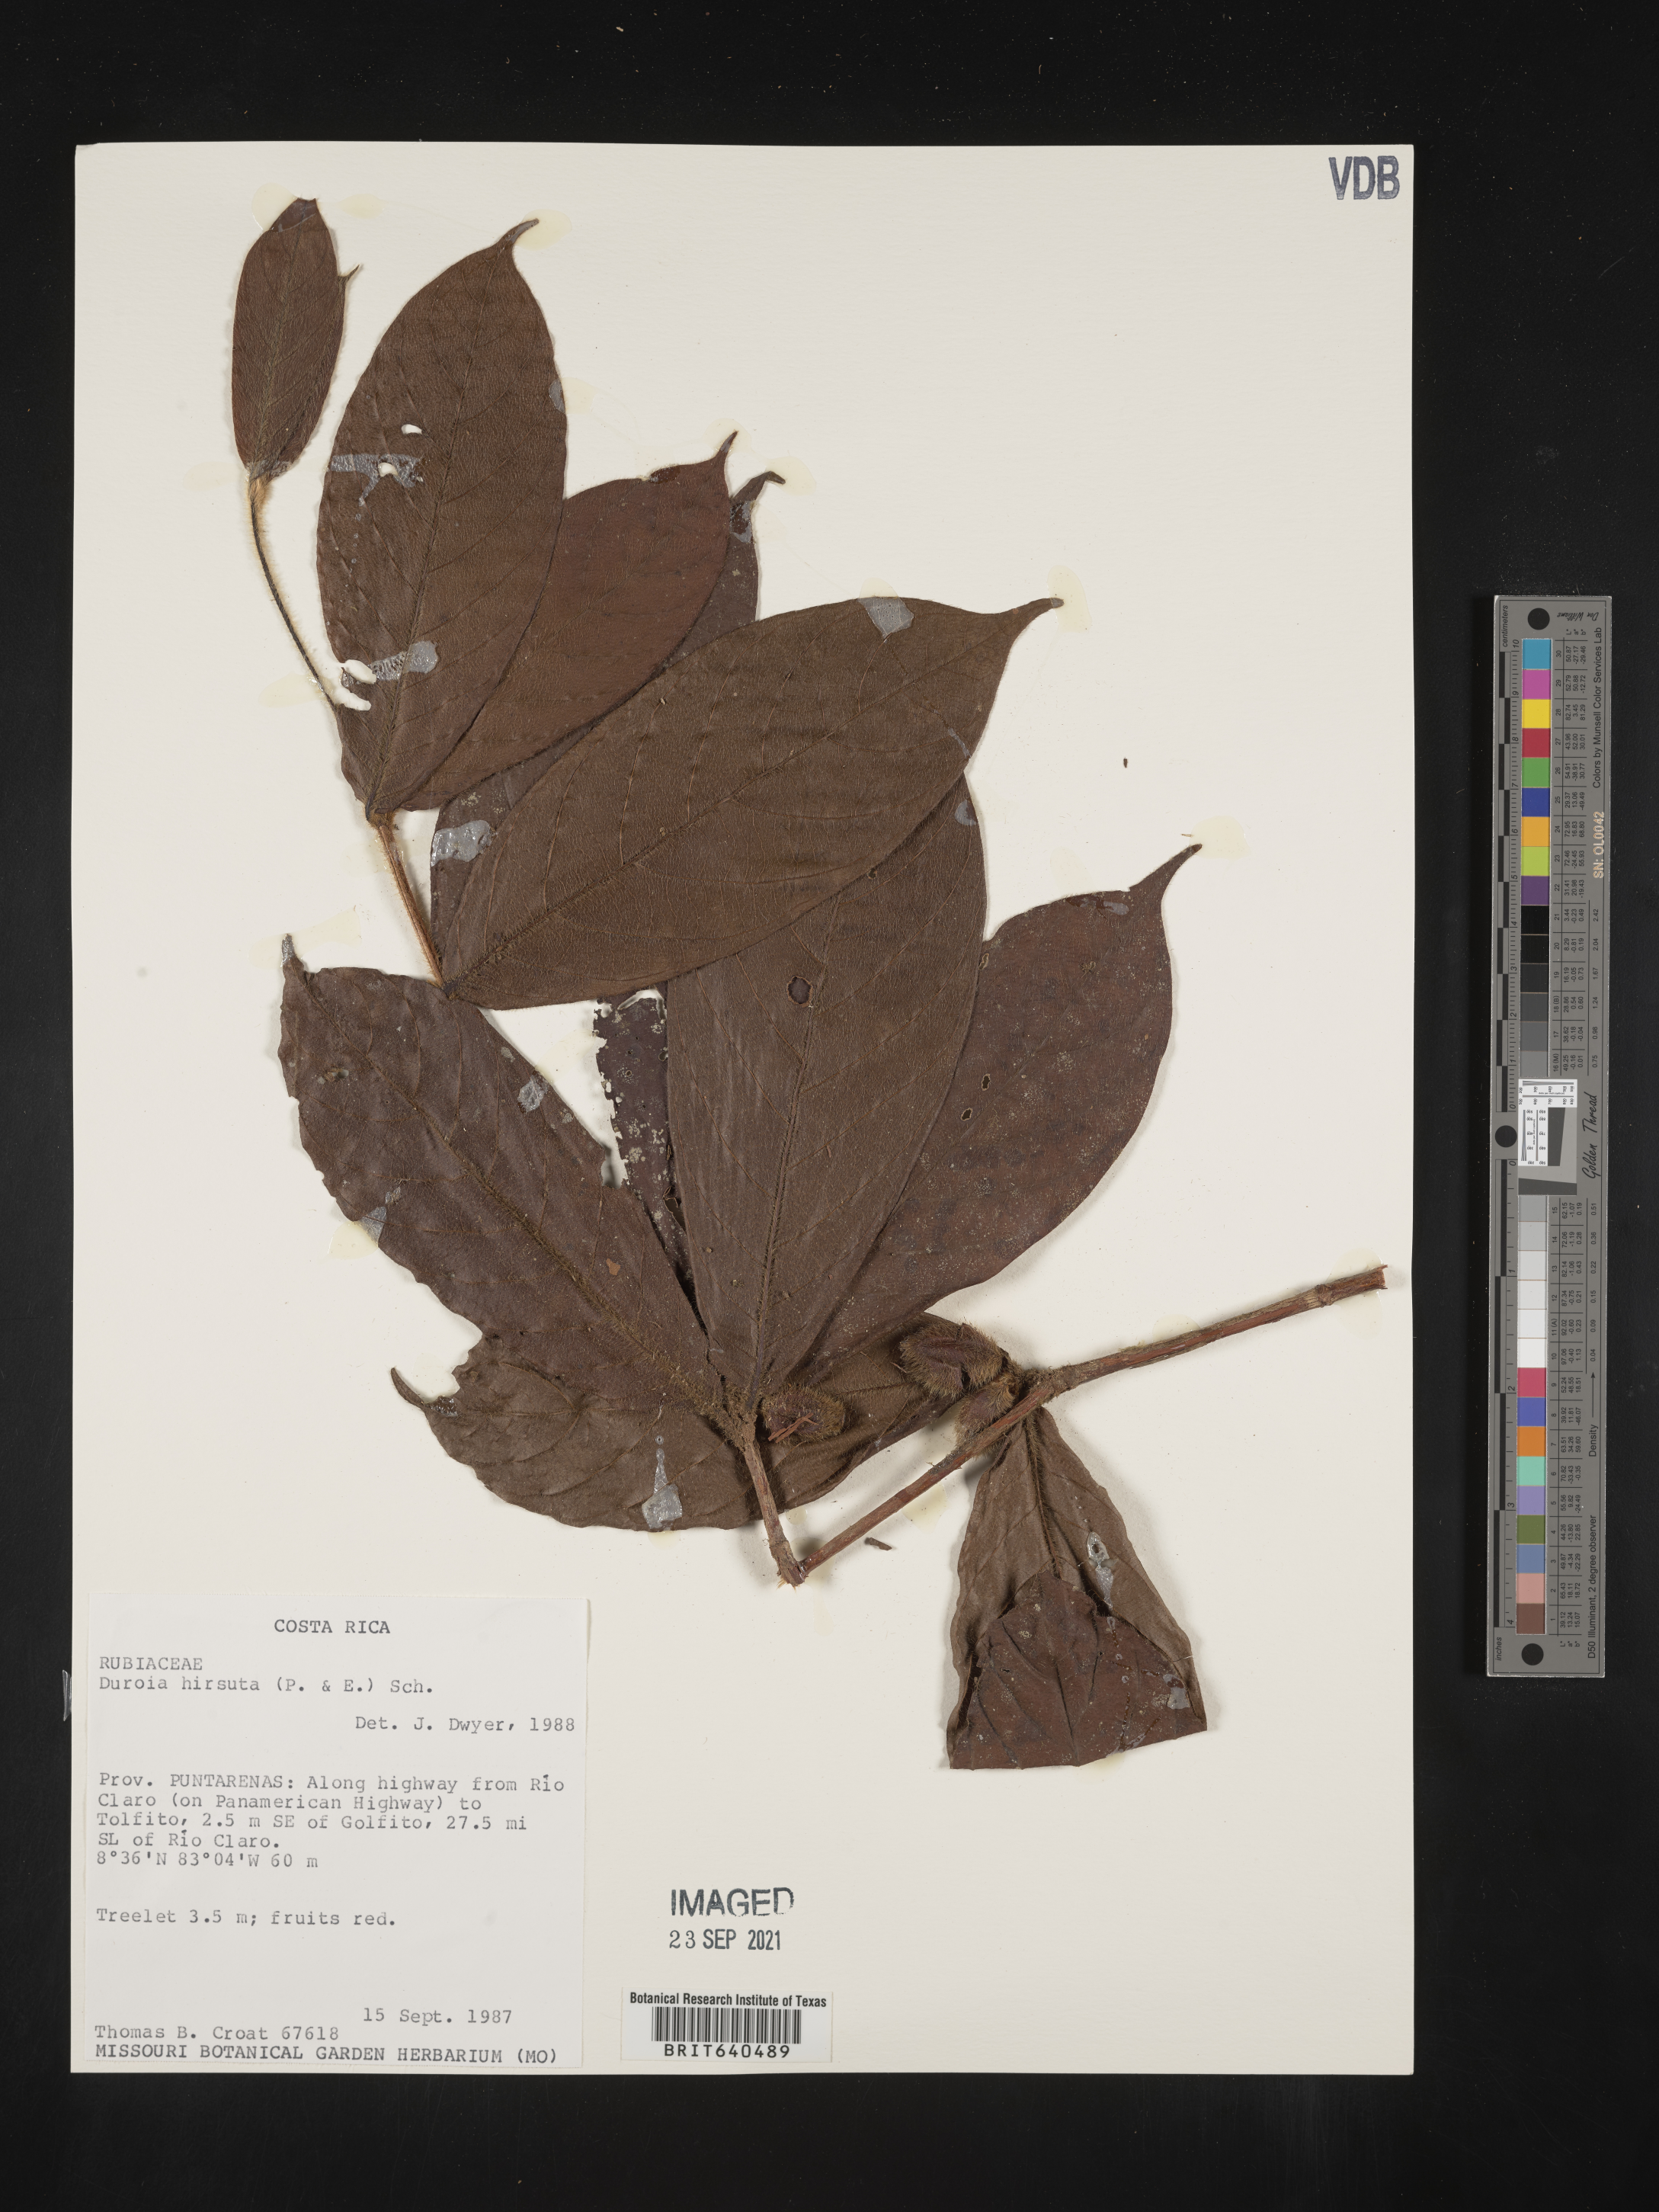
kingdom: Plantae
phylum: Tracheophyta
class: Magnoliopsida
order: Gentianales
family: Rubiaceae
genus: Duroia
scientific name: Duroia
